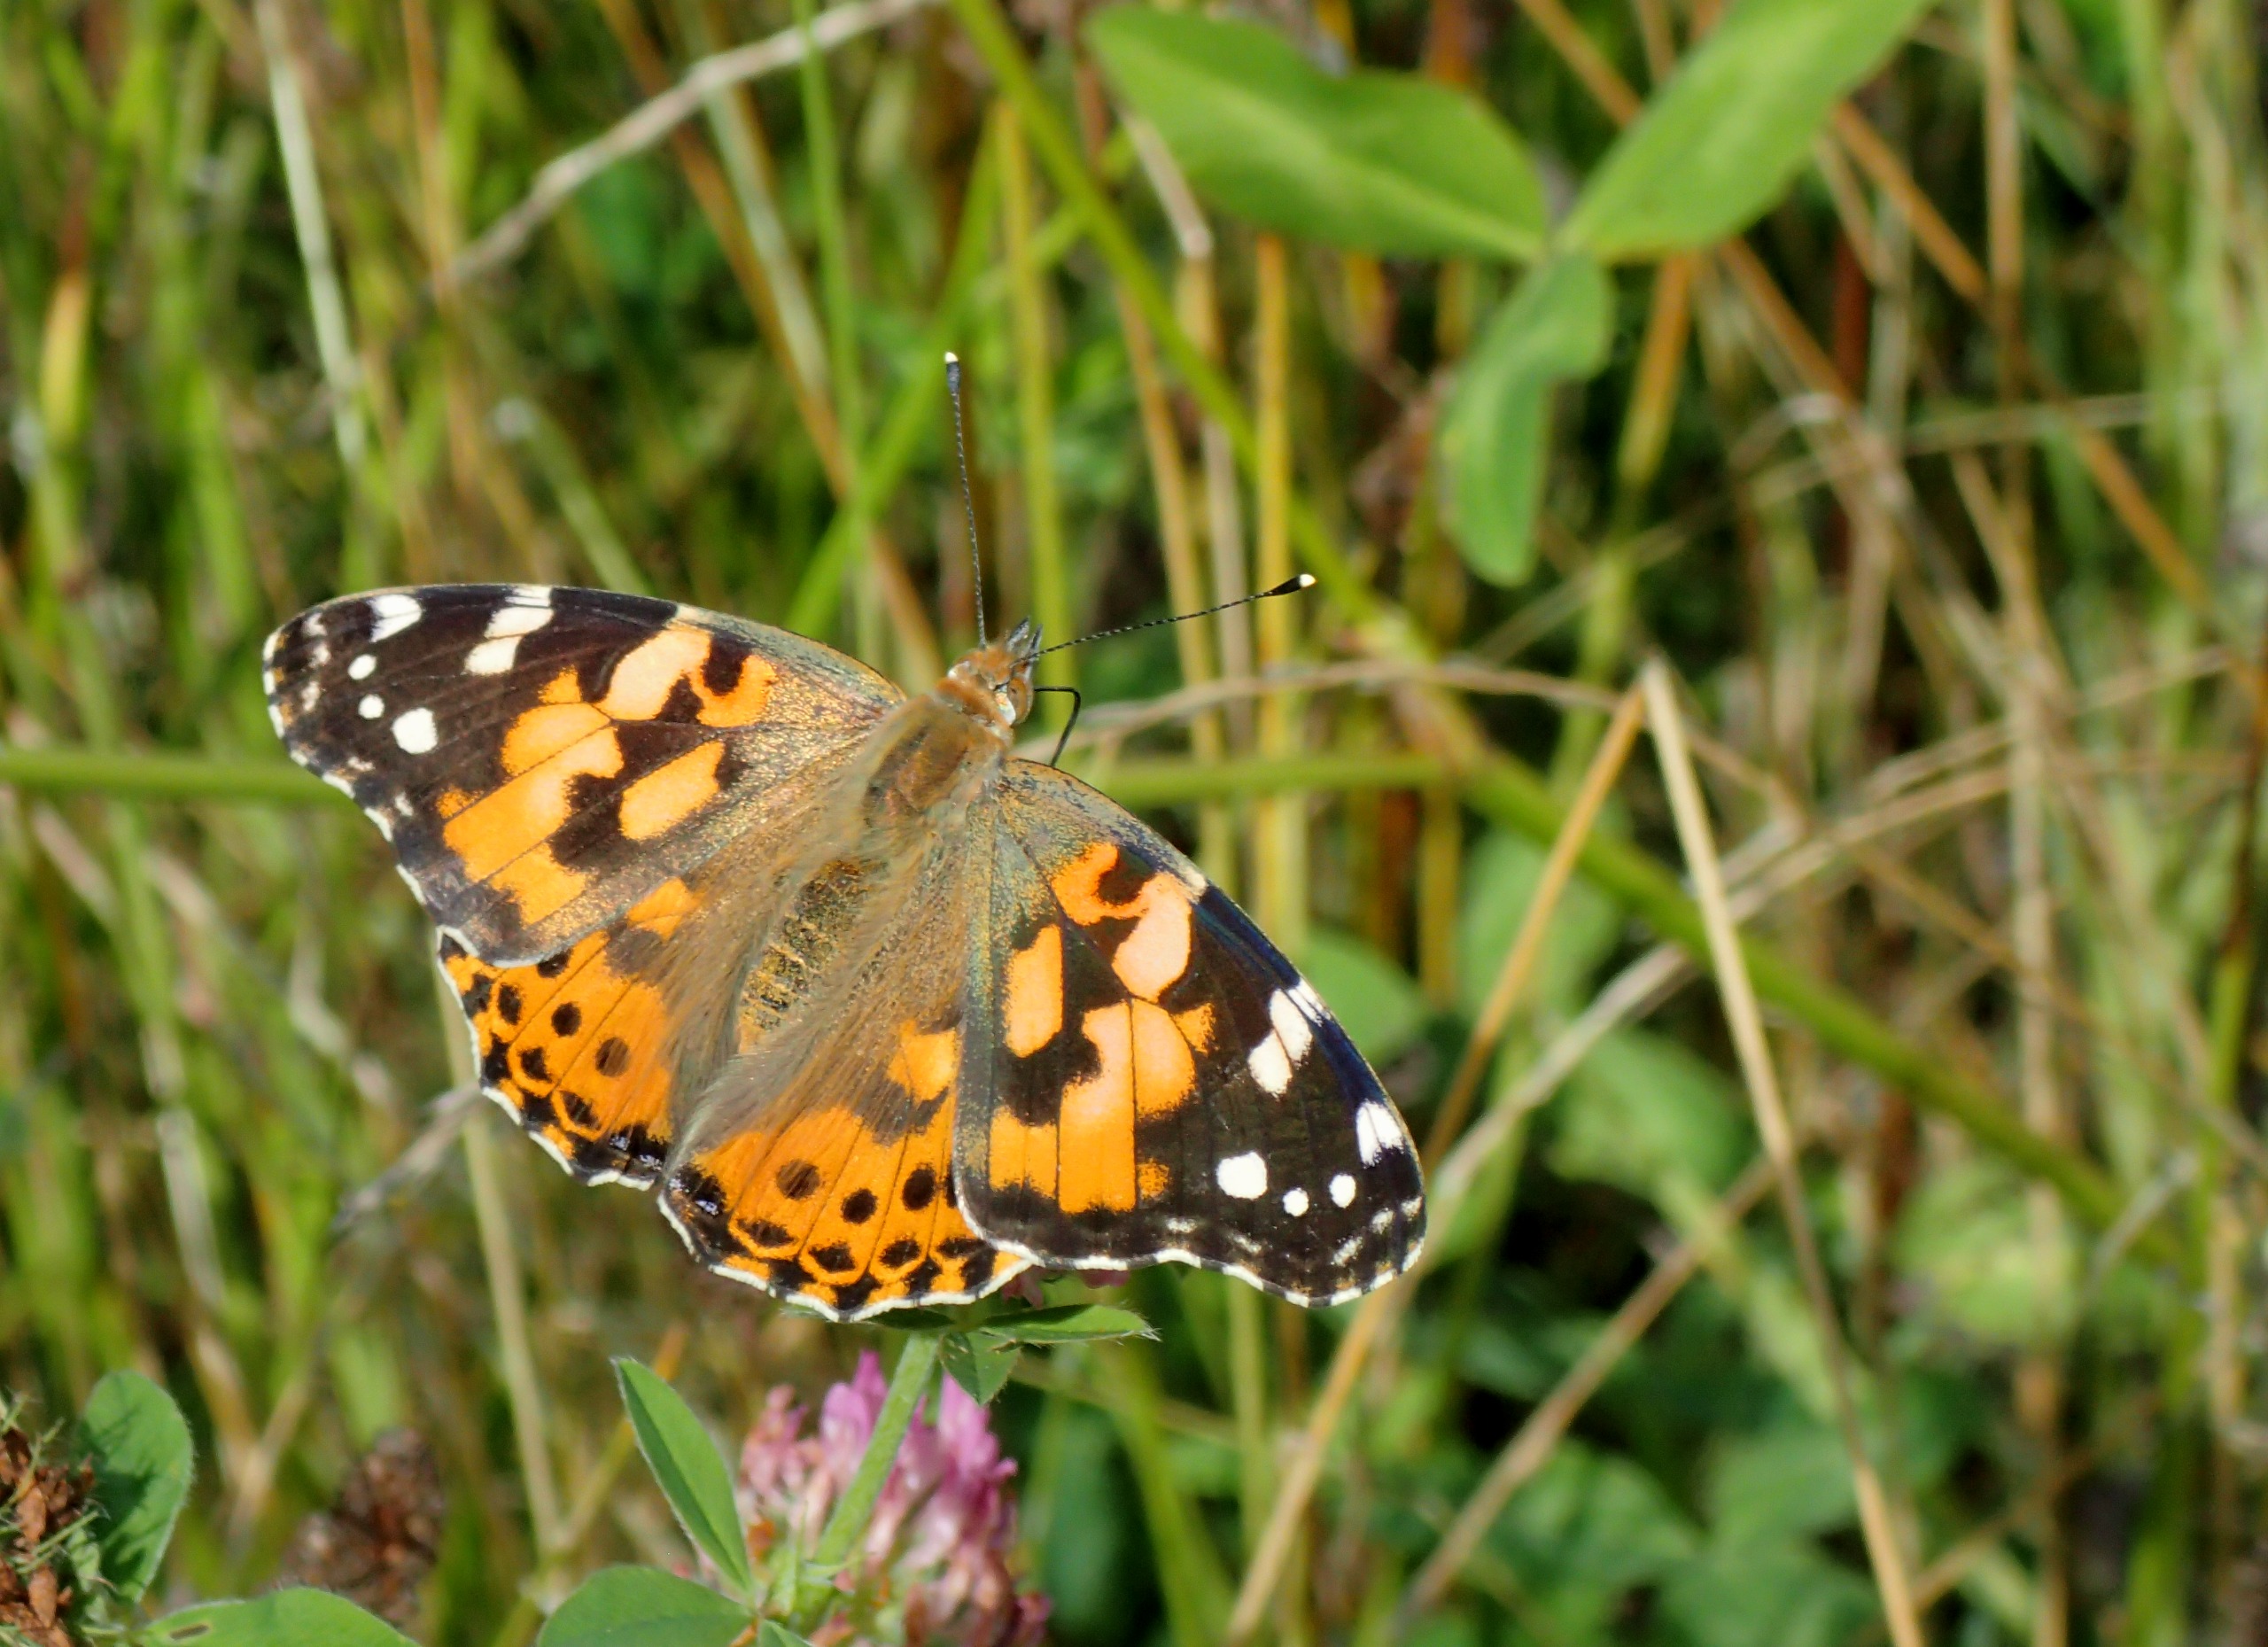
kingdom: Animalia
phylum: Arthropoda
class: Insecta
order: Lepidoptera
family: Nymphalidae
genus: Vanessa
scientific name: Vanessa cardui
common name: Tidselsommerfugl
